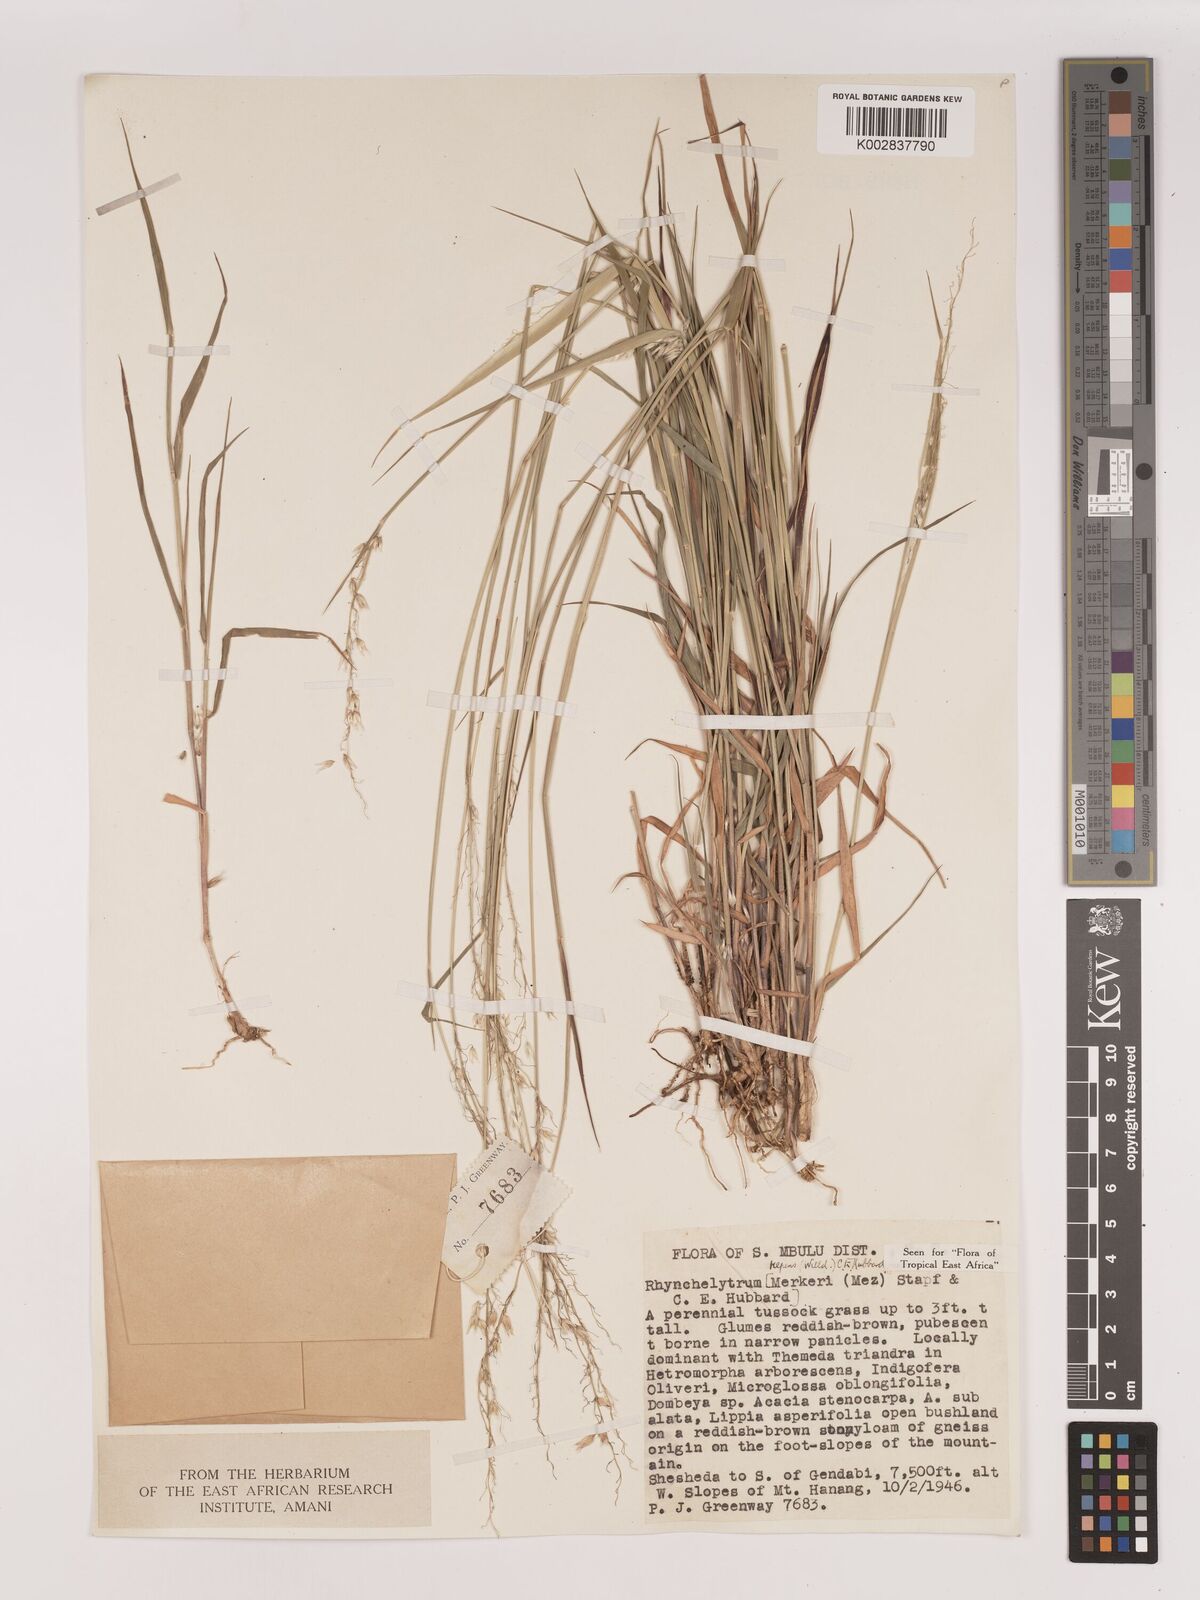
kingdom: Plantae
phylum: Tracheophyta
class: Liliopsida
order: Poales
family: Poaceae
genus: Melinis
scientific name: Melinis repens
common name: Rose natal grass
